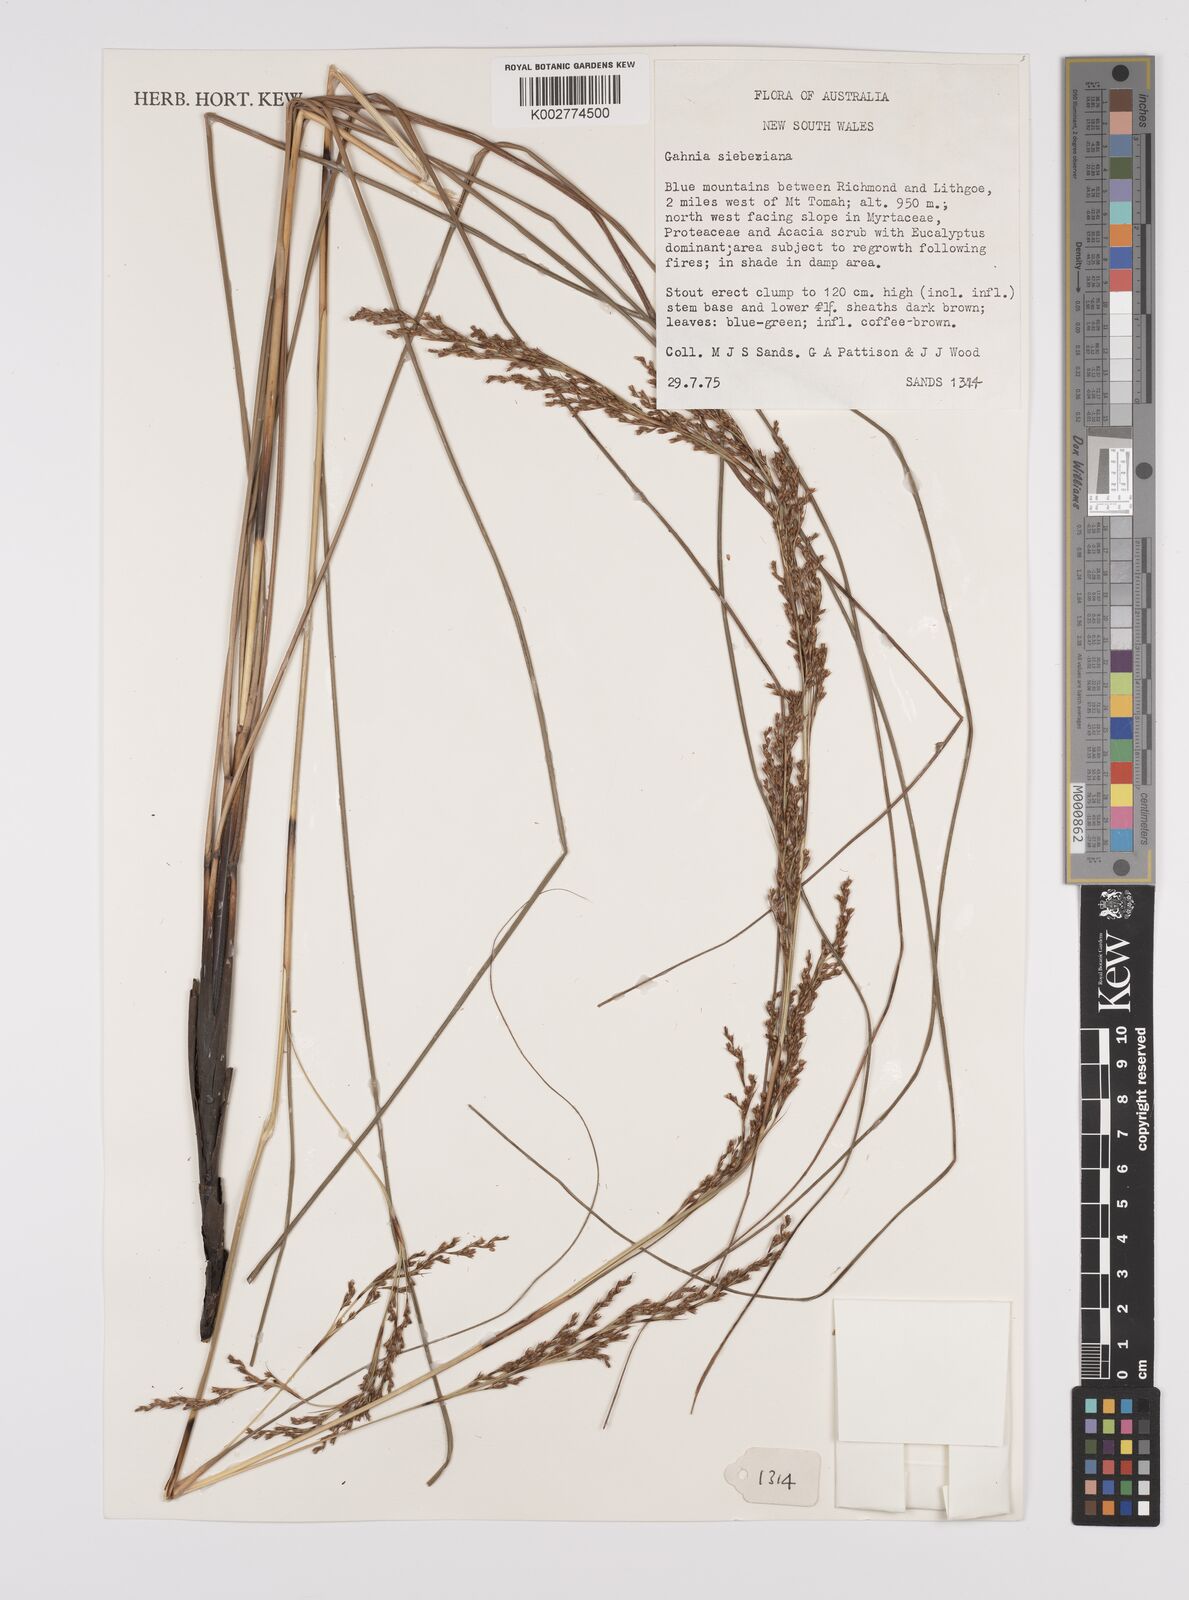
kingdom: Plantae
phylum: Tracheophyta
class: Liliopsida
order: Poales
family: Cyperaceae
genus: Gahnia
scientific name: Gahnia filifolia
